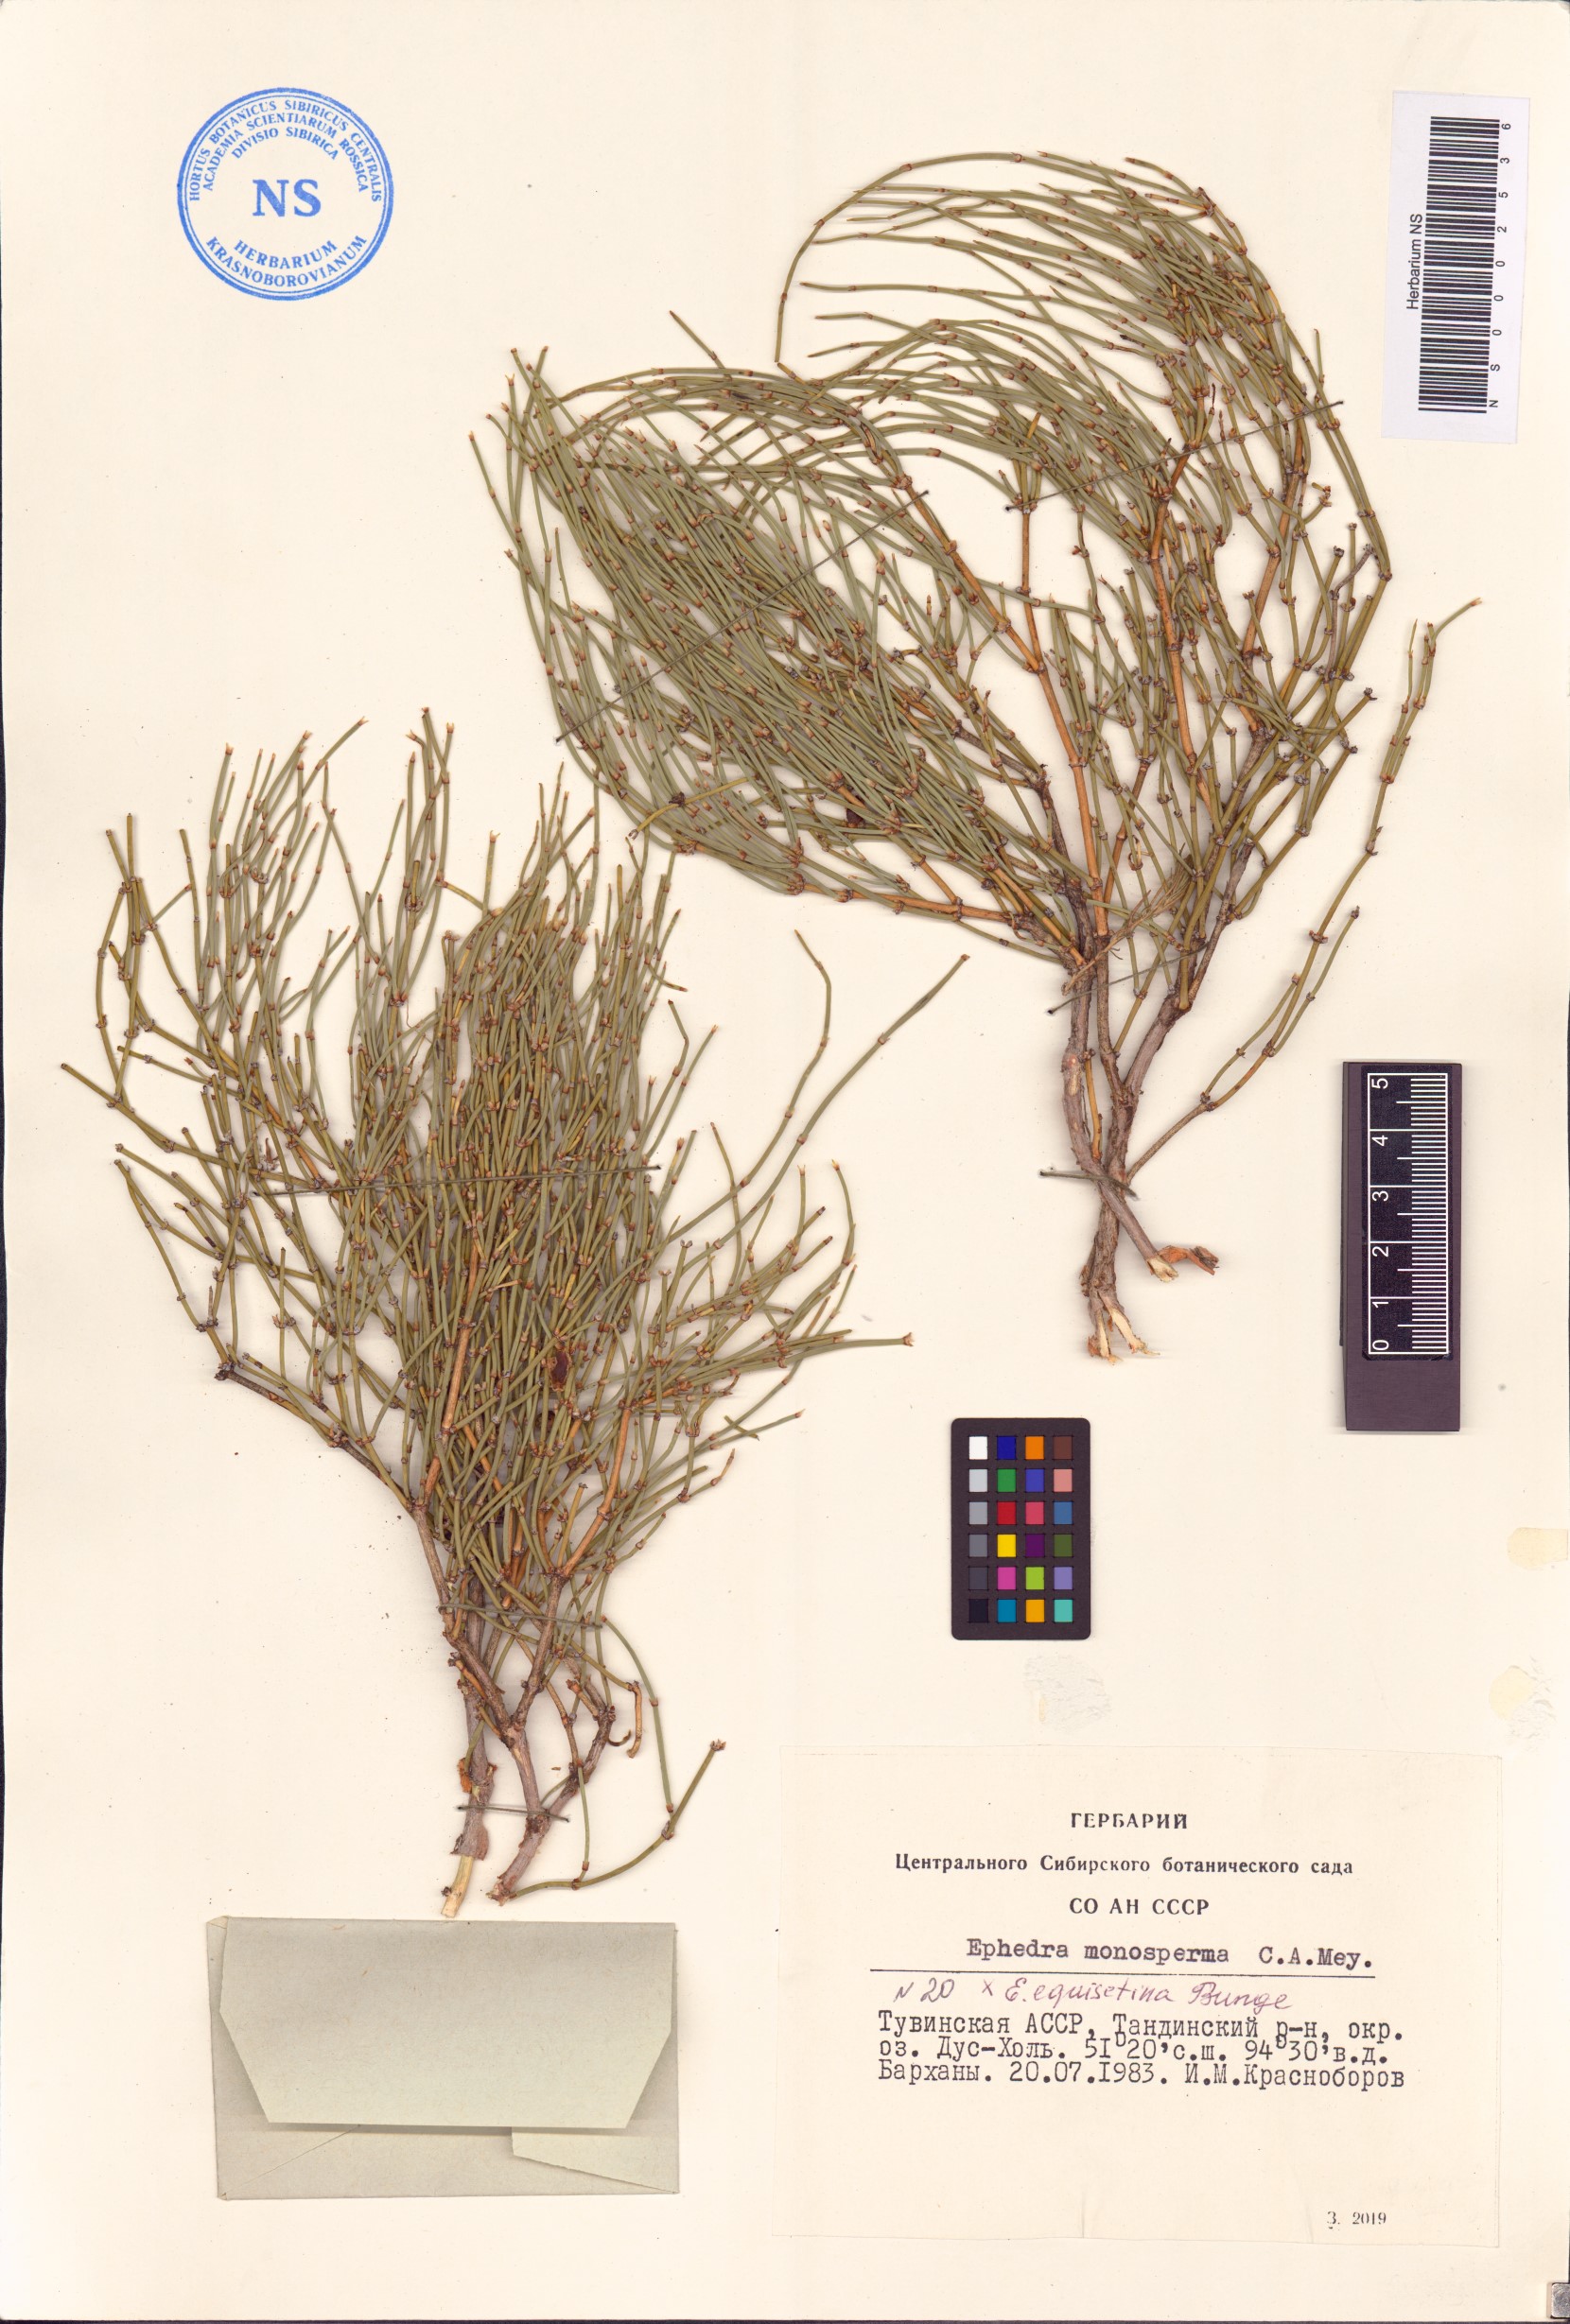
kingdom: Plantae
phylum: Tracheophyta
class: Gnetopsida
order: Ephedrales
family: Ephedraceae
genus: Ephedra
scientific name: Ephedra monosperma
